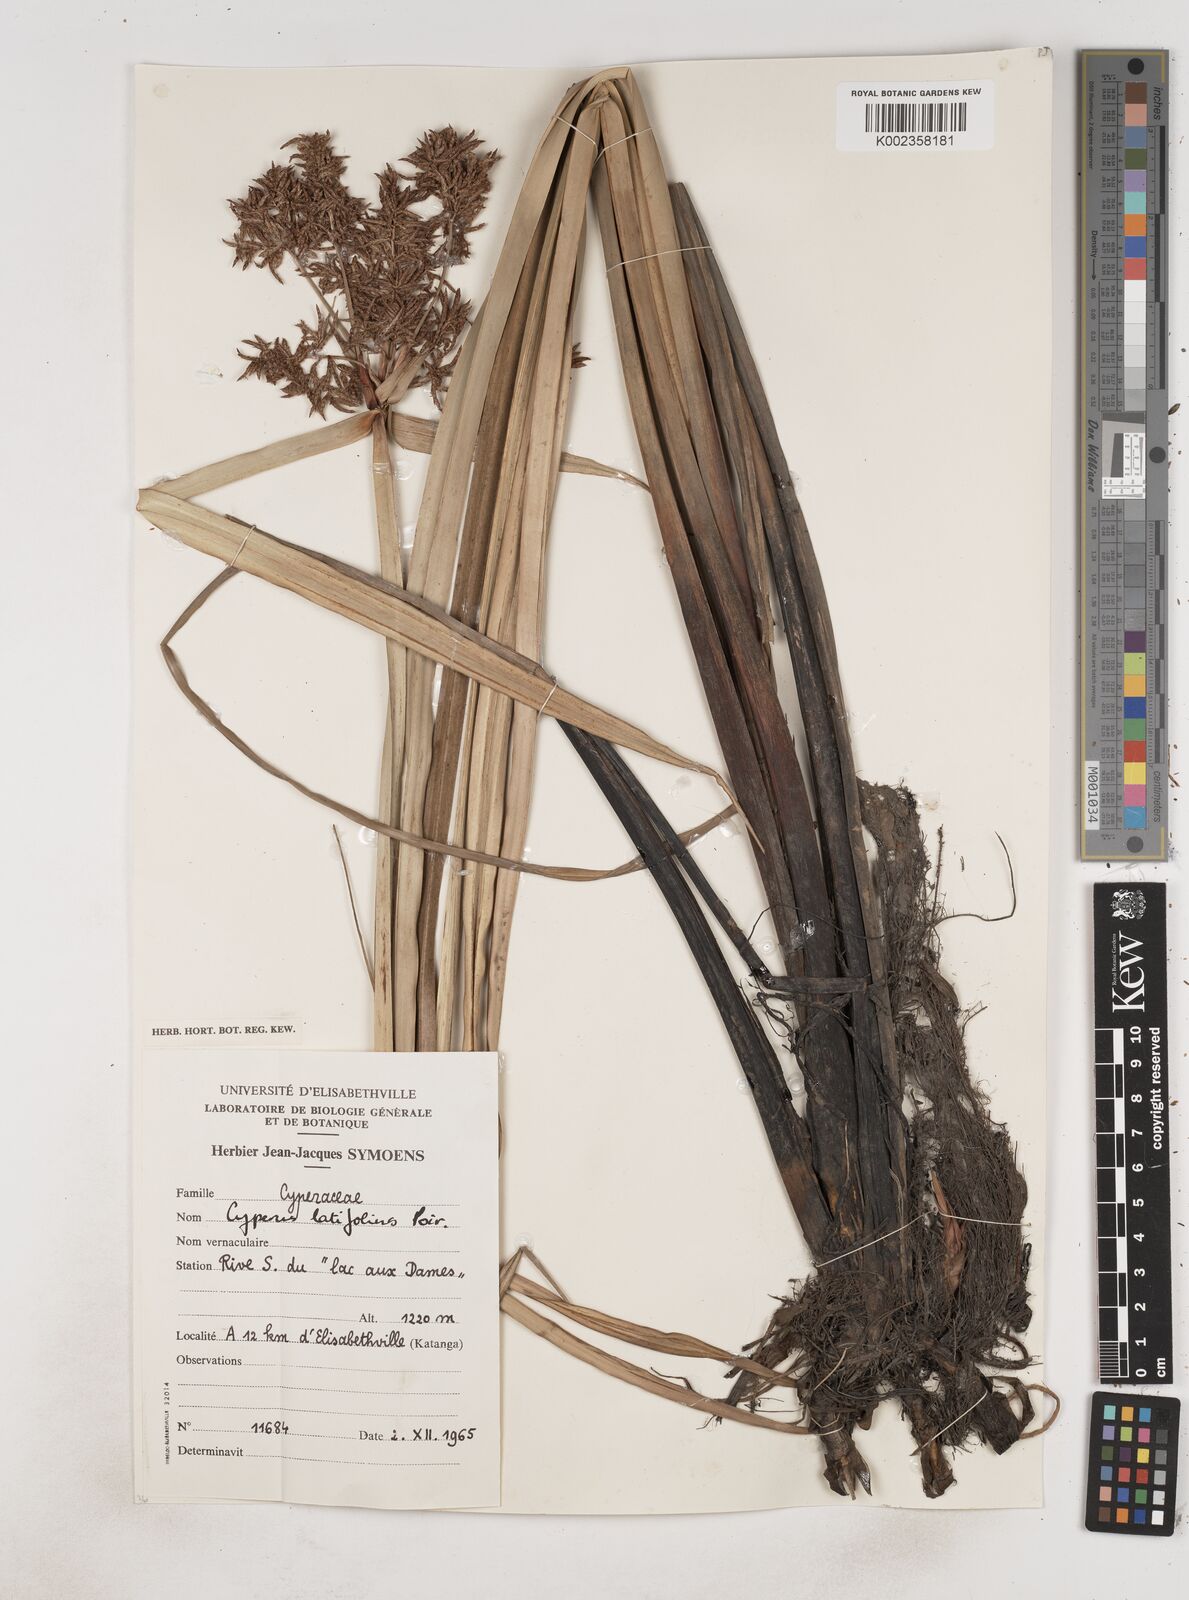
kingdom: Plantae
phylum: Tracheophyta
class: Liliopsida
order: Poales
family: Cyperaceae
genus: Cyperus
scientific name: Cyperus latifolius
